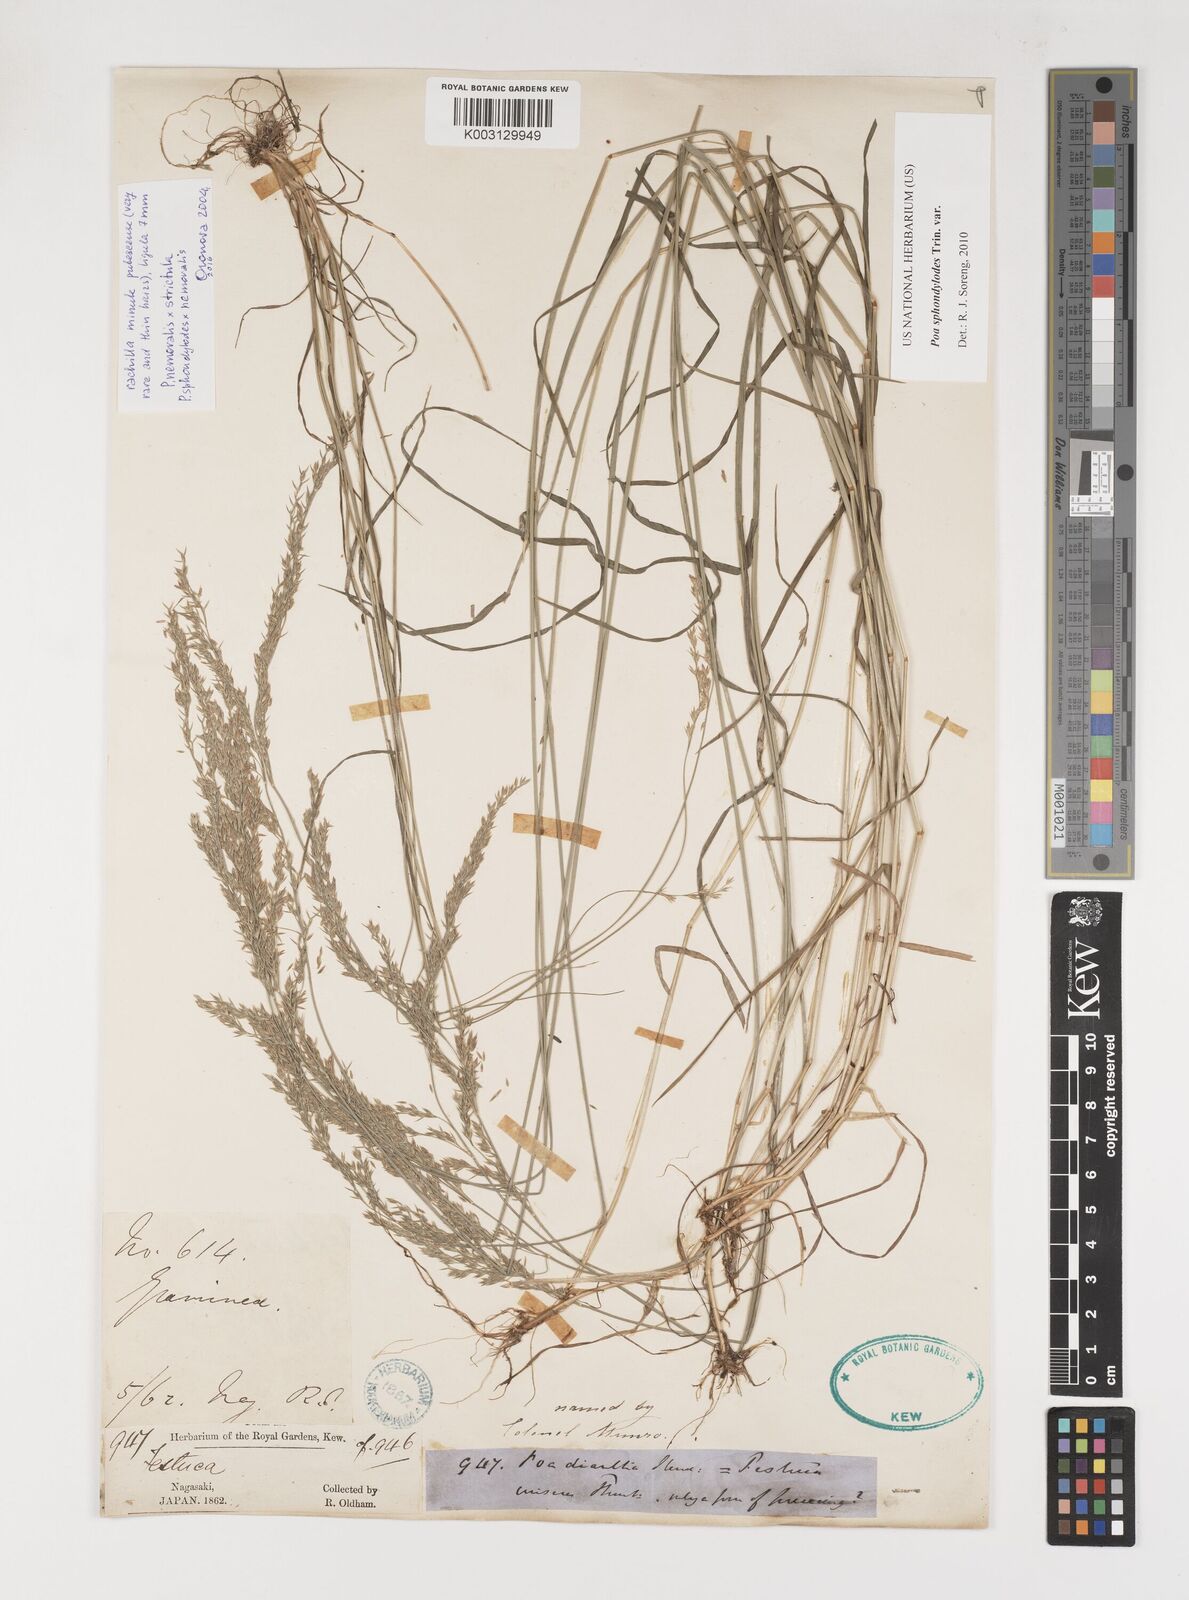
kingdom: Plantae
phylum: Tracheophyta
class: Liliopsida
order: Poales
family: Poaceae
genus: Poa
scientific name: Poa sphondylodes
